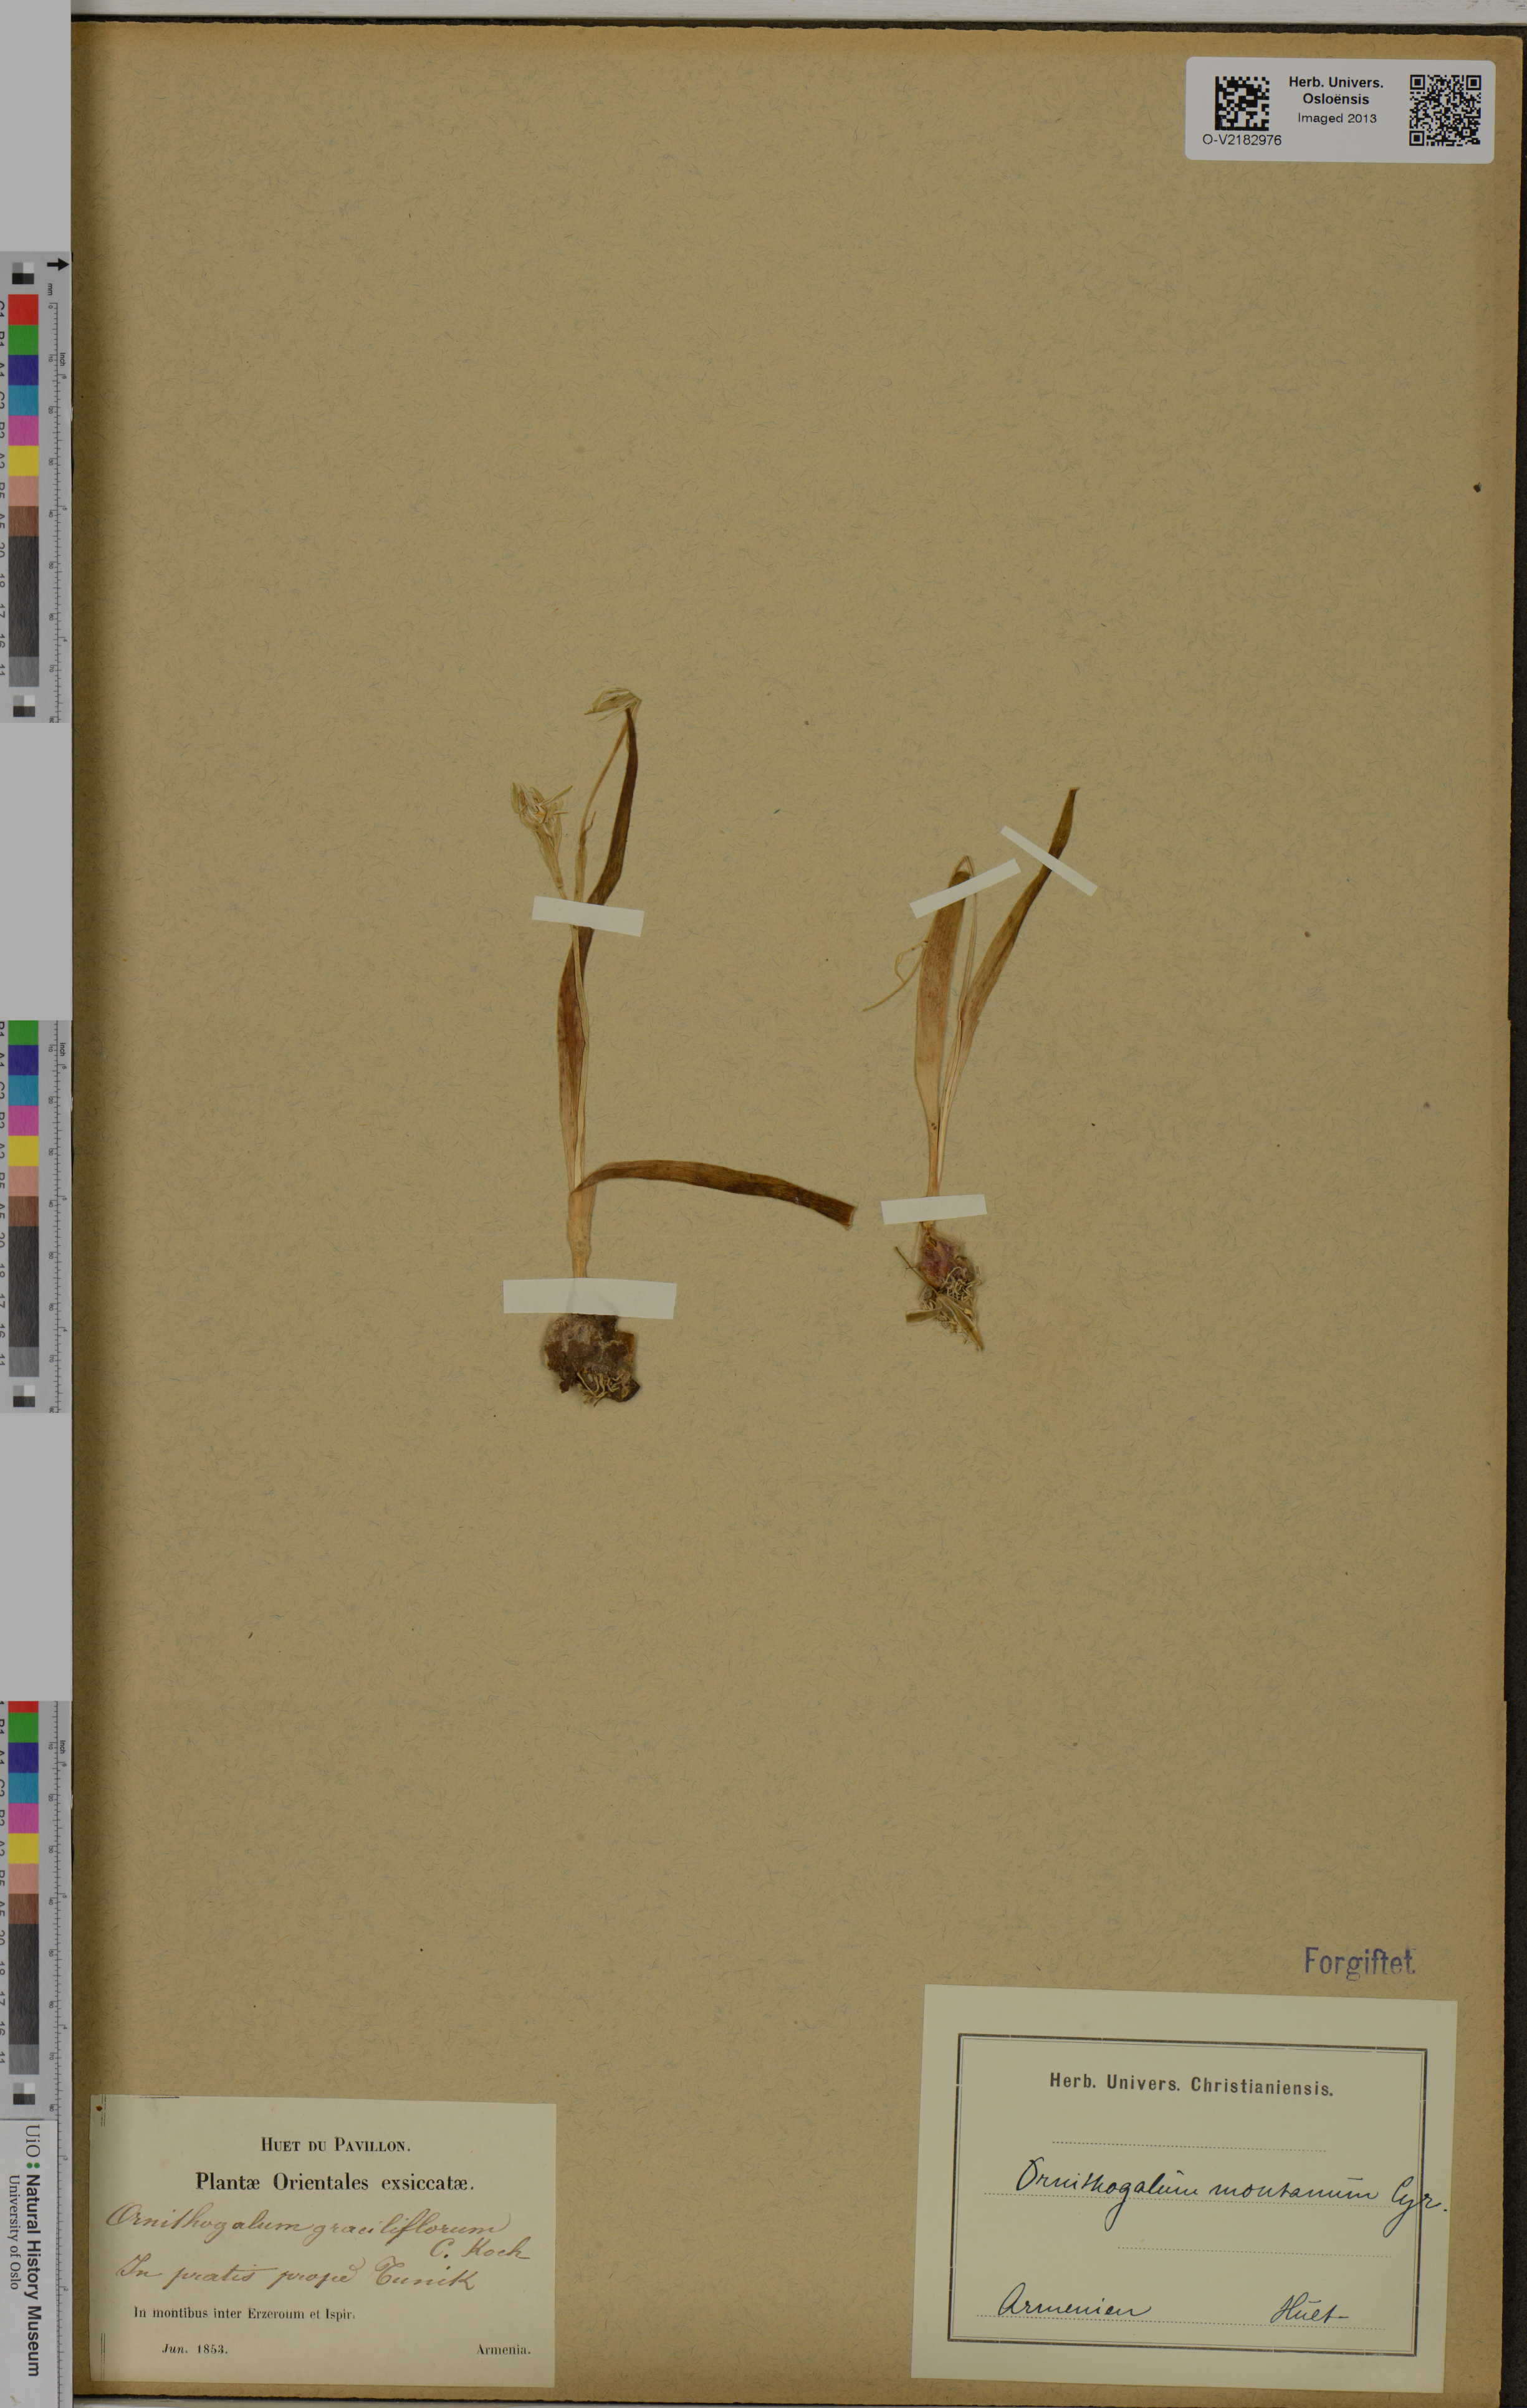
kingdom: Plantae
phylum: Tracheophyta
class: Liliopsida
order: Asparagales
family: Asparagaceae
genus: Ornithogalum
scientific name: Ornithogalum montanum
